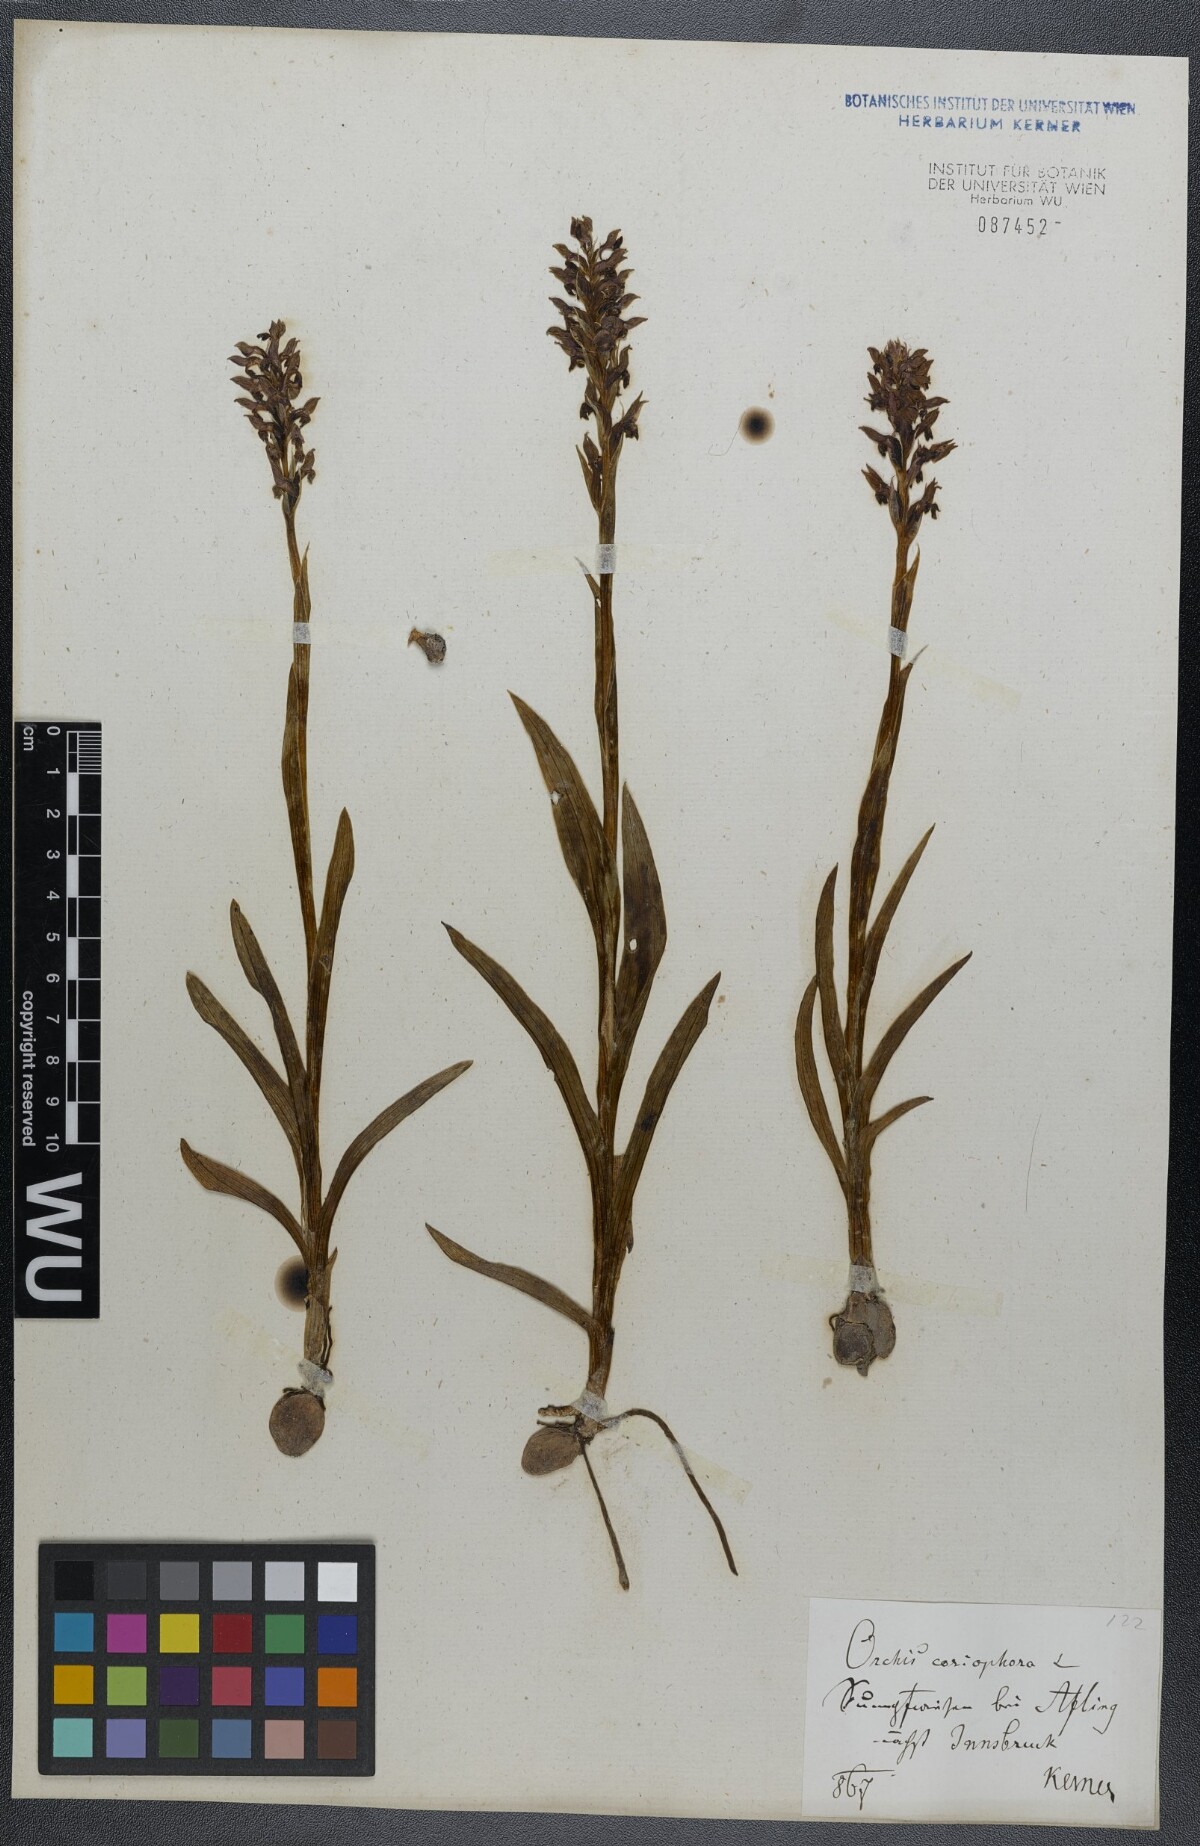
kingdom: Plantae
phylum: Tracheophyta
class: Liliopsida
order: Asparagales
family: Orchidaceae
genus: Anacamptis
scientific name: Anacamptis coriophora
